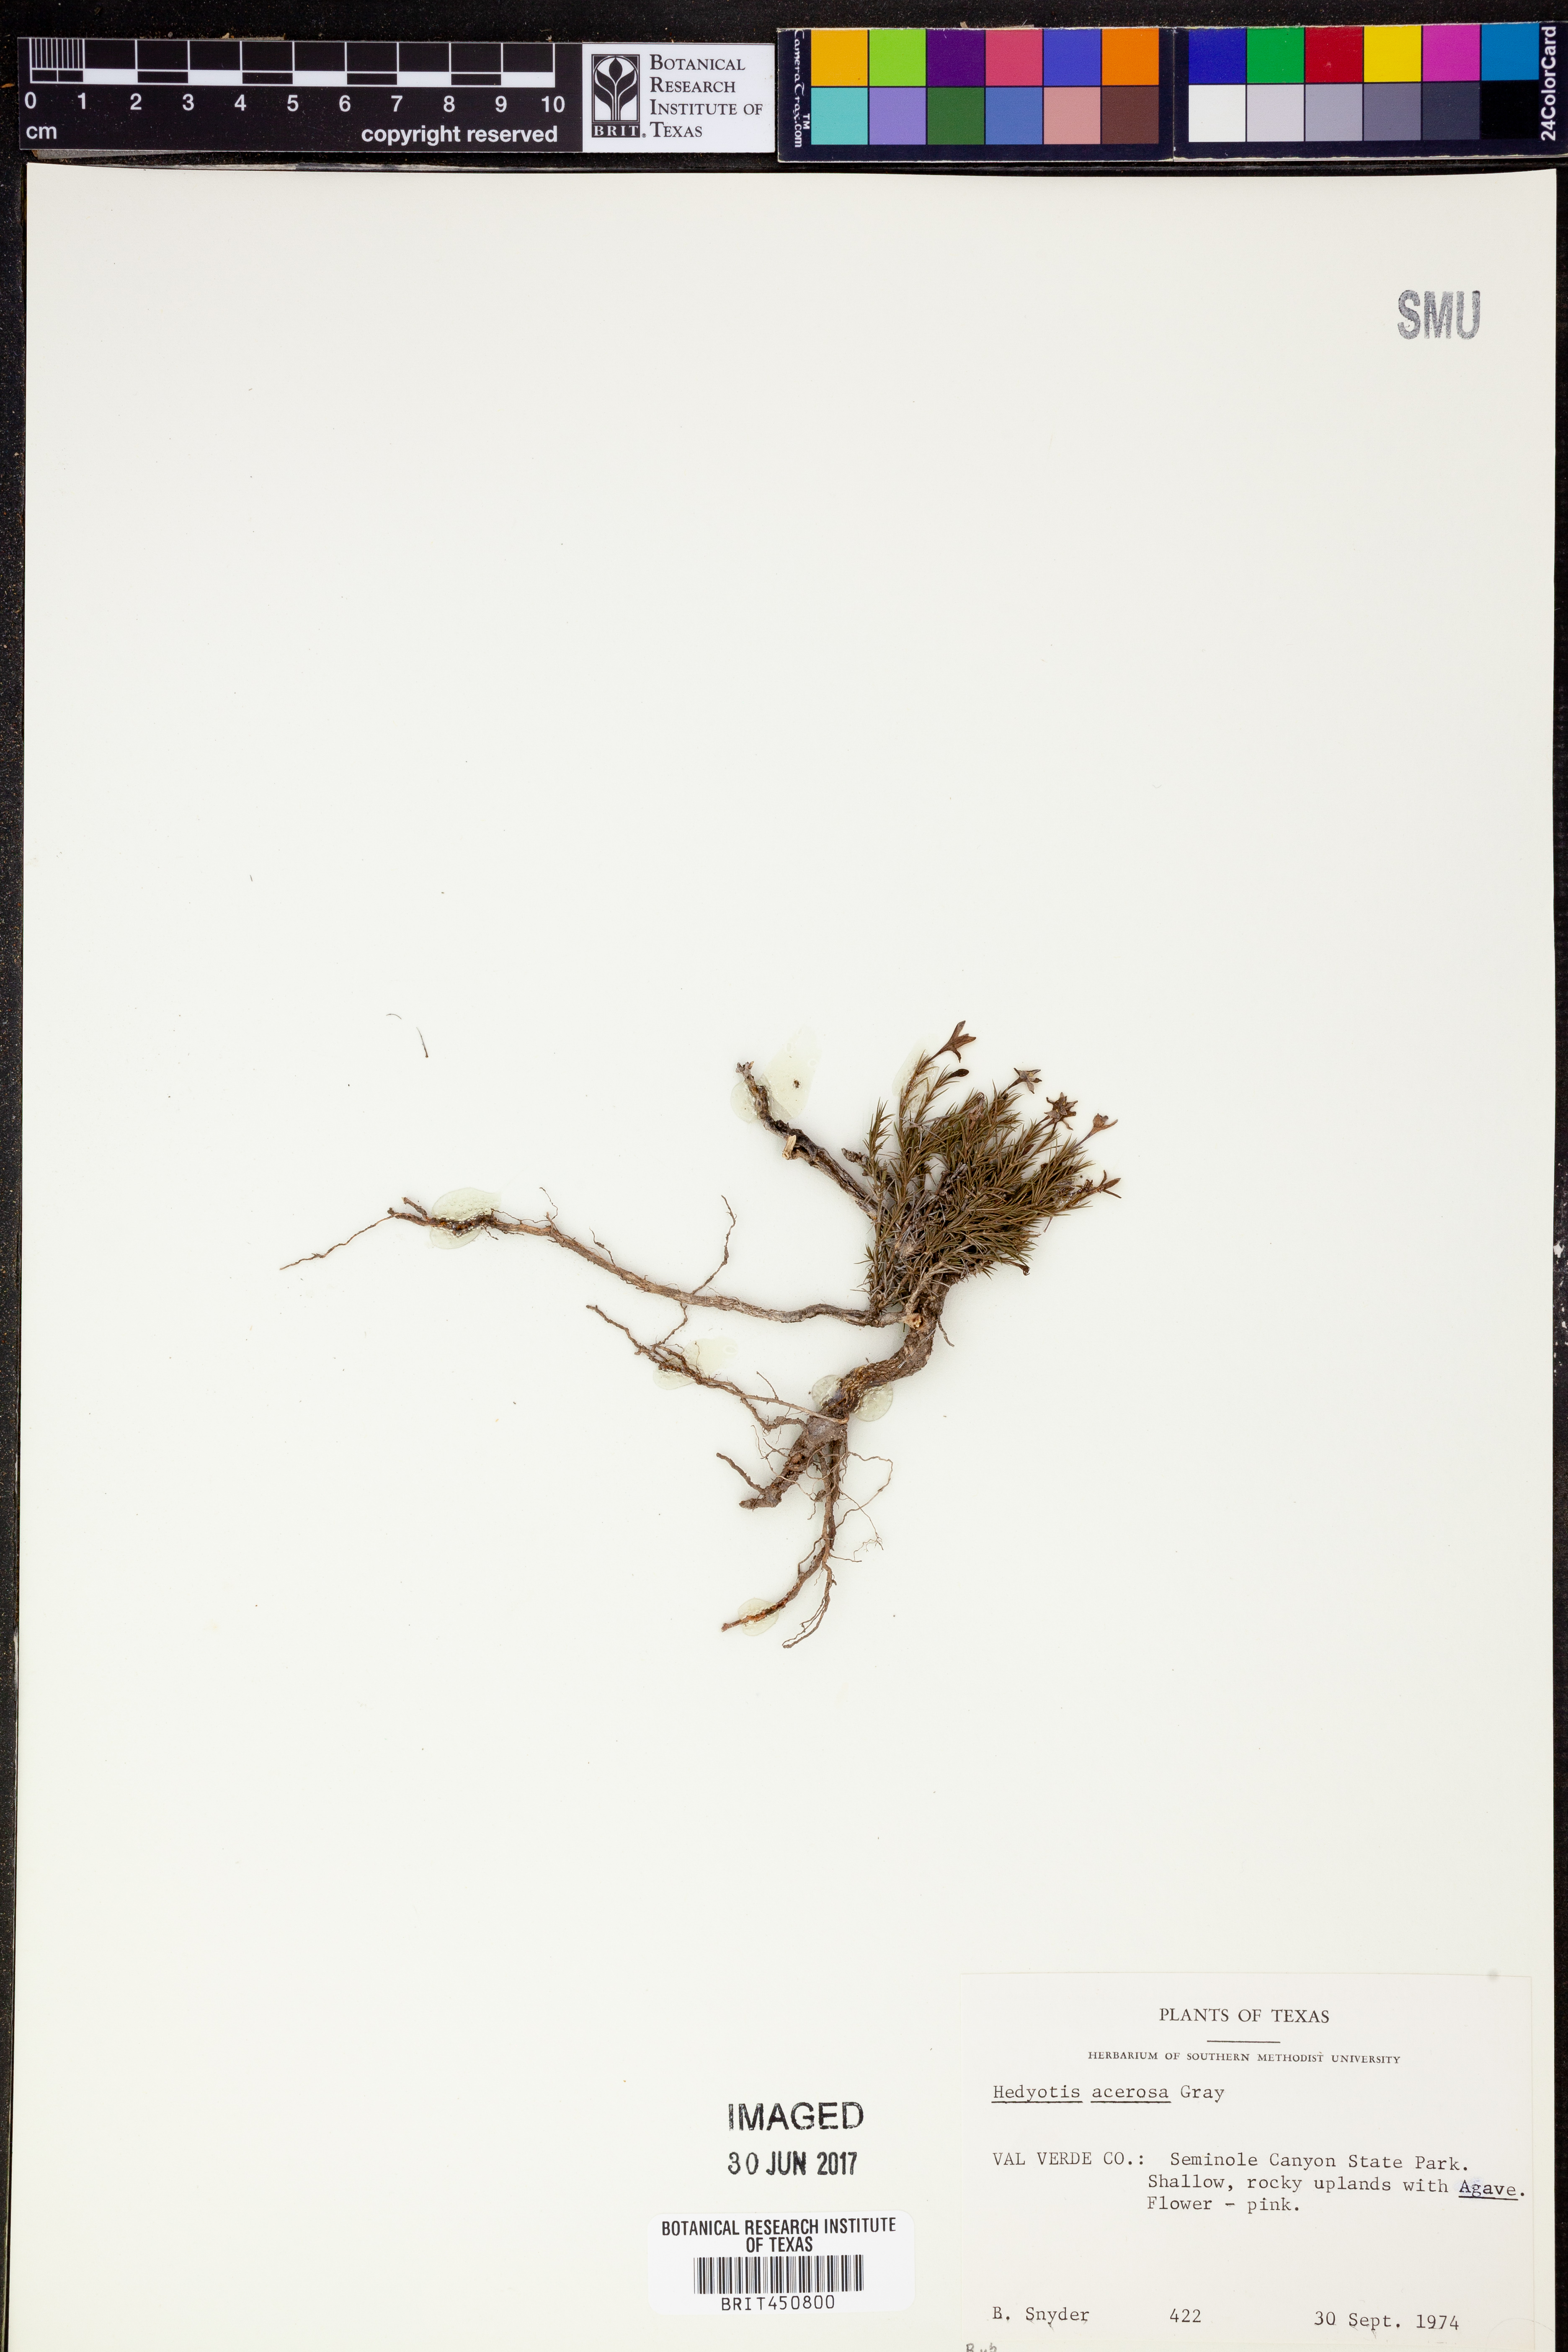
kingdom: Plantae
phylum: Tracheophyta
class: Magnoliopsida
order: Gentianales
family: Rubiaceae
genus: Houstonia
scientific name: Houstonia acerosa
